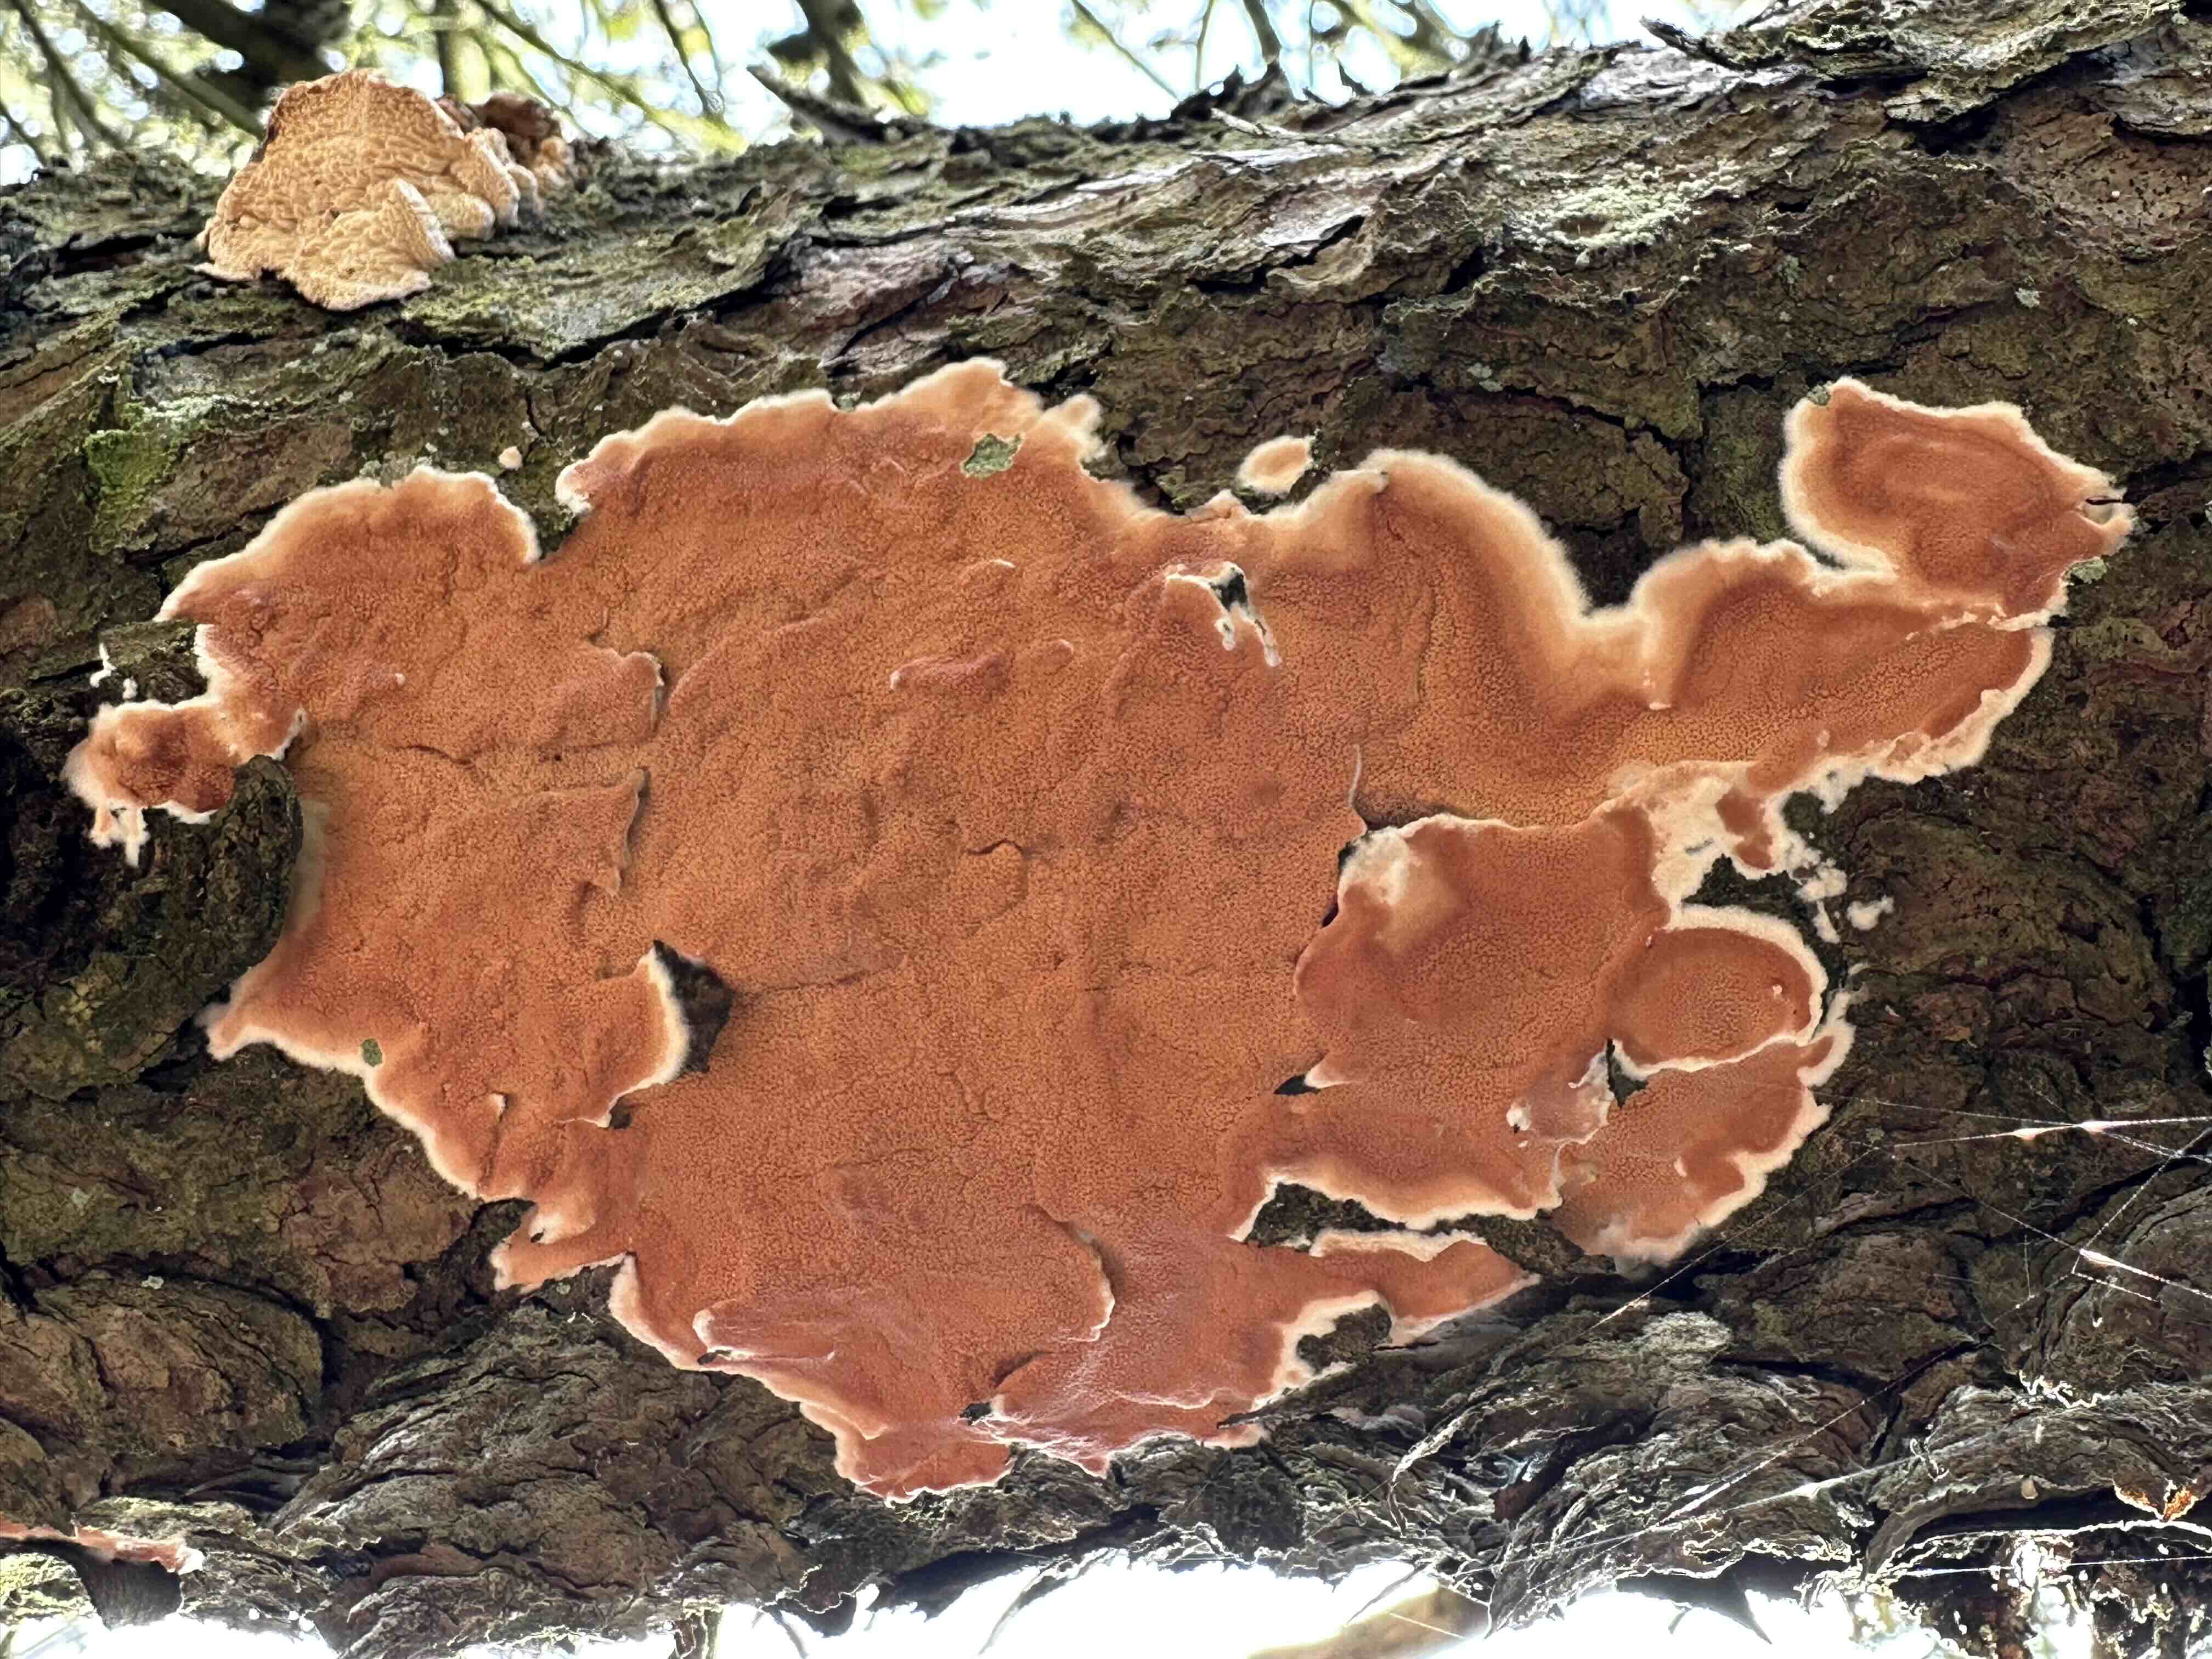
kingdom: Fungi
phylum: Basidiomycota
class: Agaricomycetes
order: Polyporales
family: Irpicaceae
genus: Meruliopsis
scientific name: Meruliopsis taxicola
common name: purpurbrun foldporesvamp
